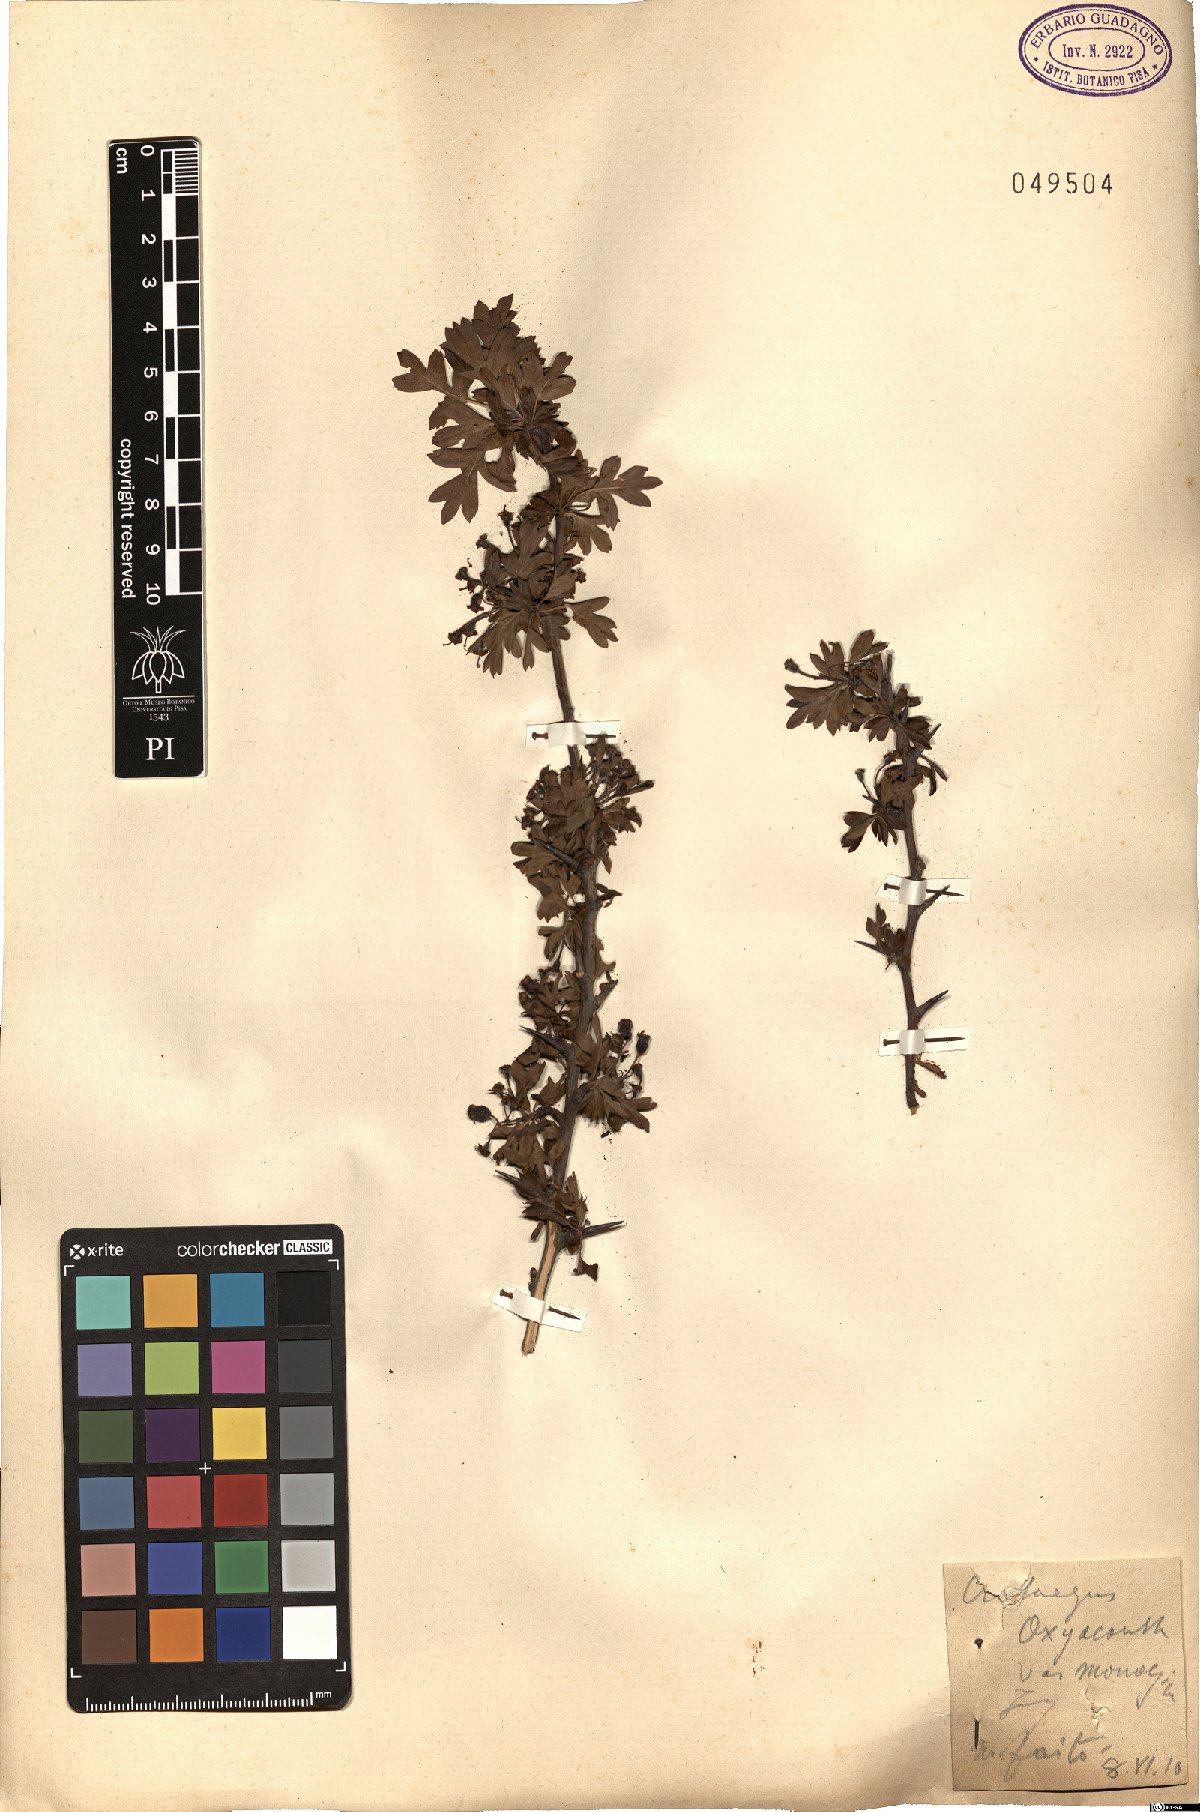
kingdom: Plantae
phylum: Tracheophyta
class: Magnoliopsida
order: Rosales
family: Rosaceae
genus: Crataegus
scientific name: Crataegus monogyna
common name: Hawthorn
